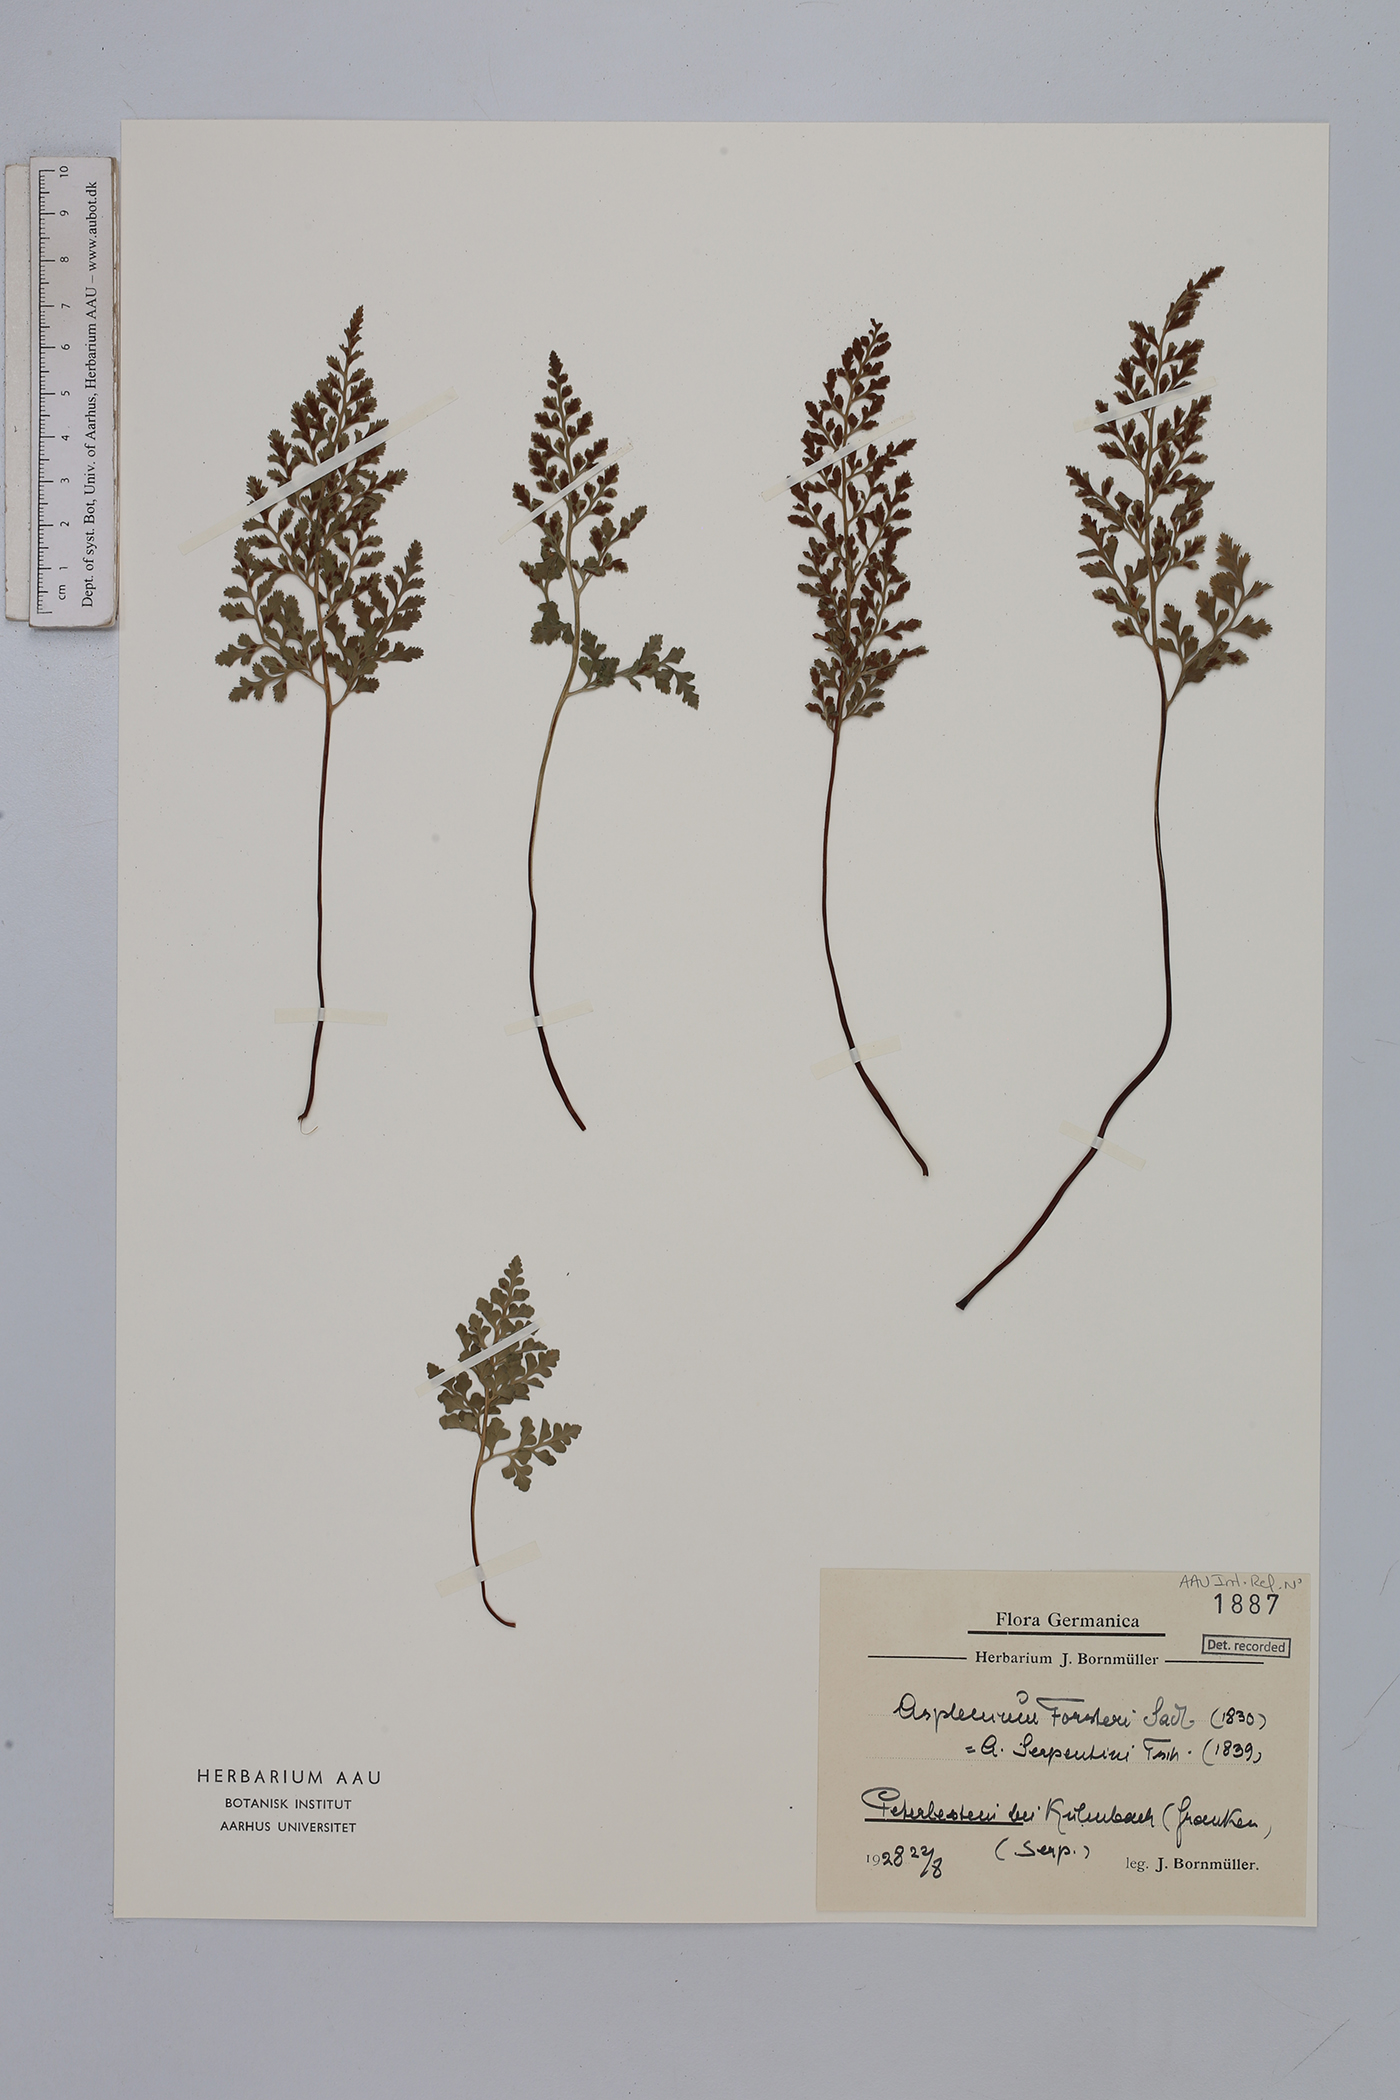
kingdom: Plantae
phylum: Tracheophyta
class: Polypodiopsida
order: Polypodiales
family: Aspleniaceae
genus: Asplenium
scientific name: Asplenium cuneifolium
